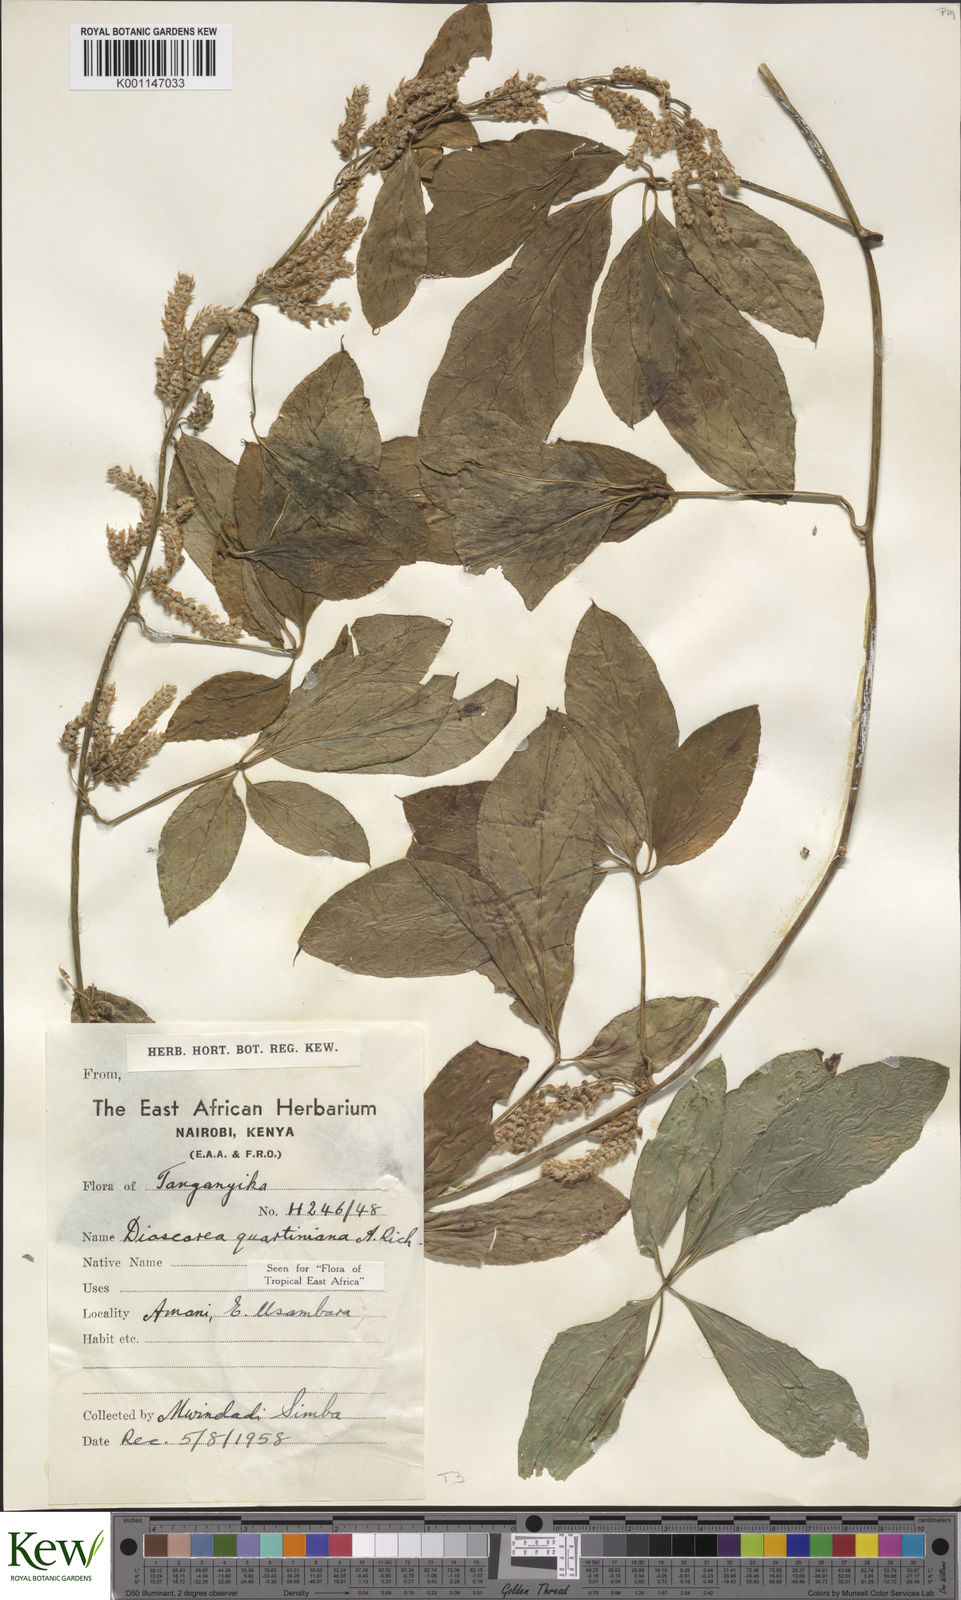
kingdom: Plantae
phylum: Tracheophyta
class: Liliopsida
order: Dioscoreales
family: Dioscoreaceae
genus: Dioscorea
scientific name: Dioscorea quartiniana
